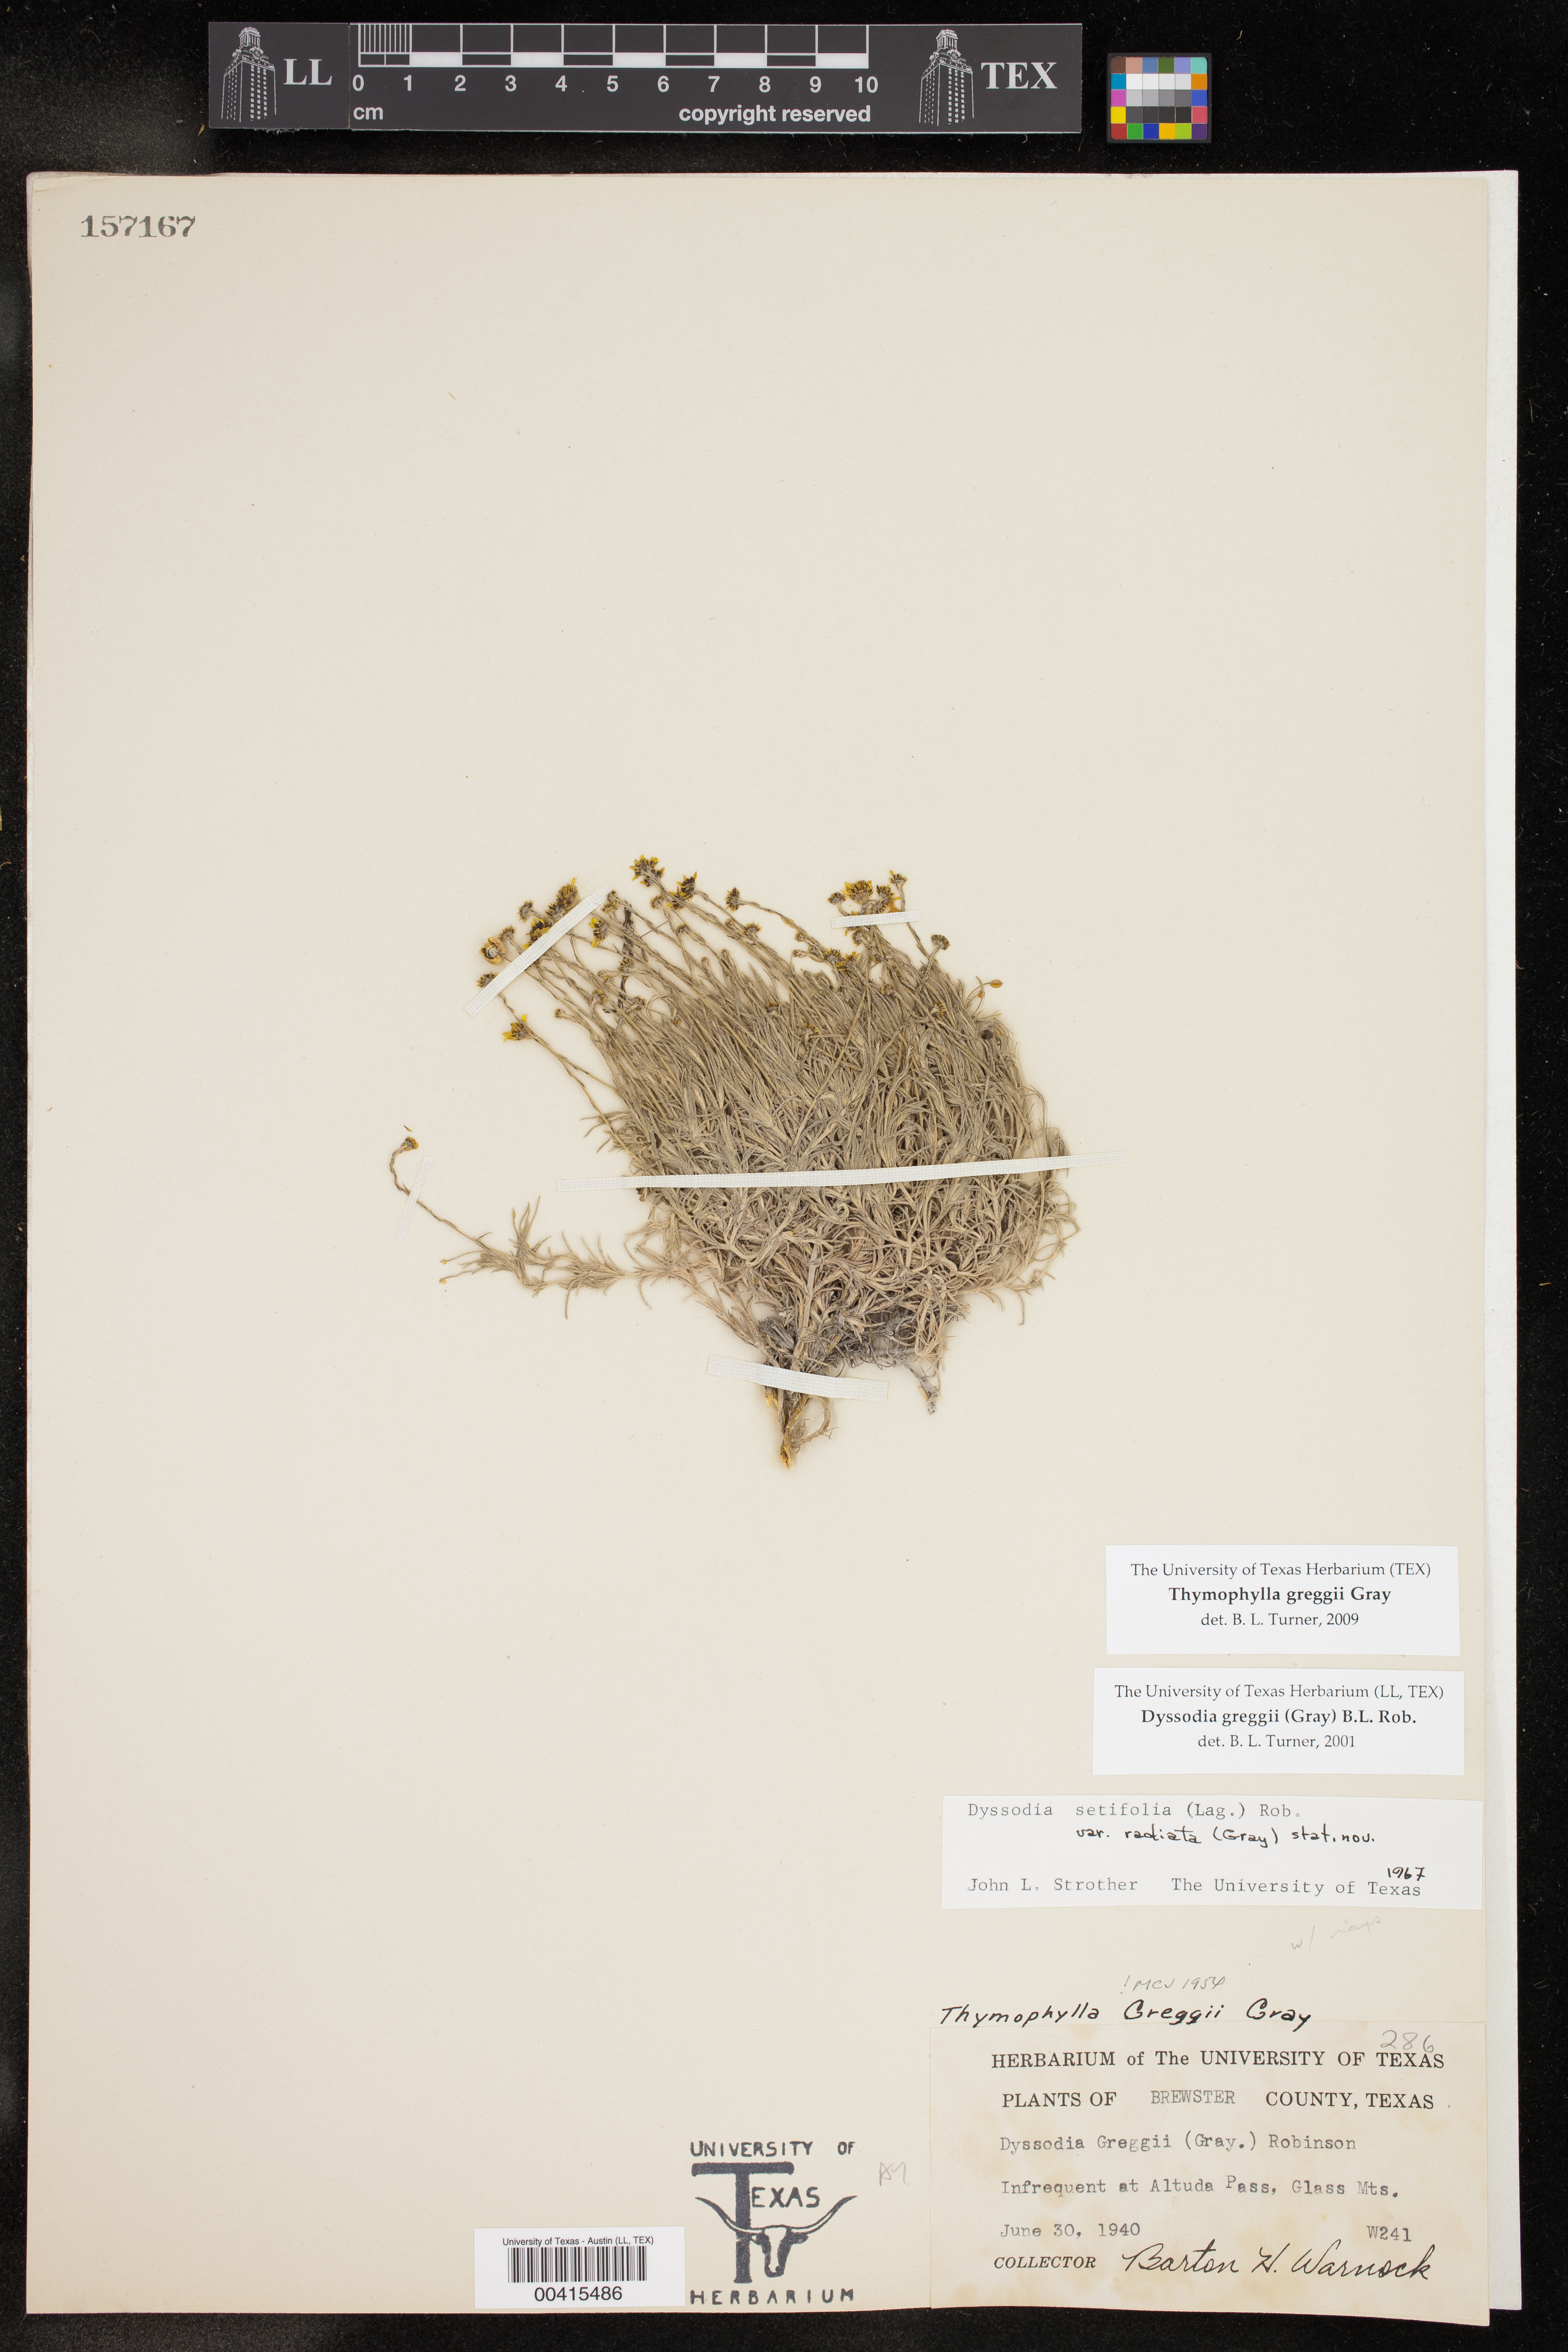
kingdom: Plantae
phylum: Tracheophyta
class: Magnoliopsida
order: Asterales
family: Asteraceae
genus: Thymophylla
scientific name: Thymophylla setifolia
